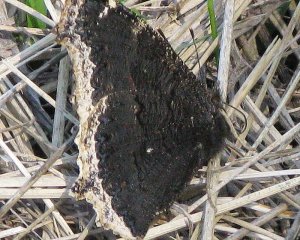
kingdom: Animalia
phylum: Arthropoda
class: Insecta
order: Lepidoptera
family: Nymphalidae
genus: Nymphalis
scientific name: Nymphalis antiopa
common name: Mourning Cloak
